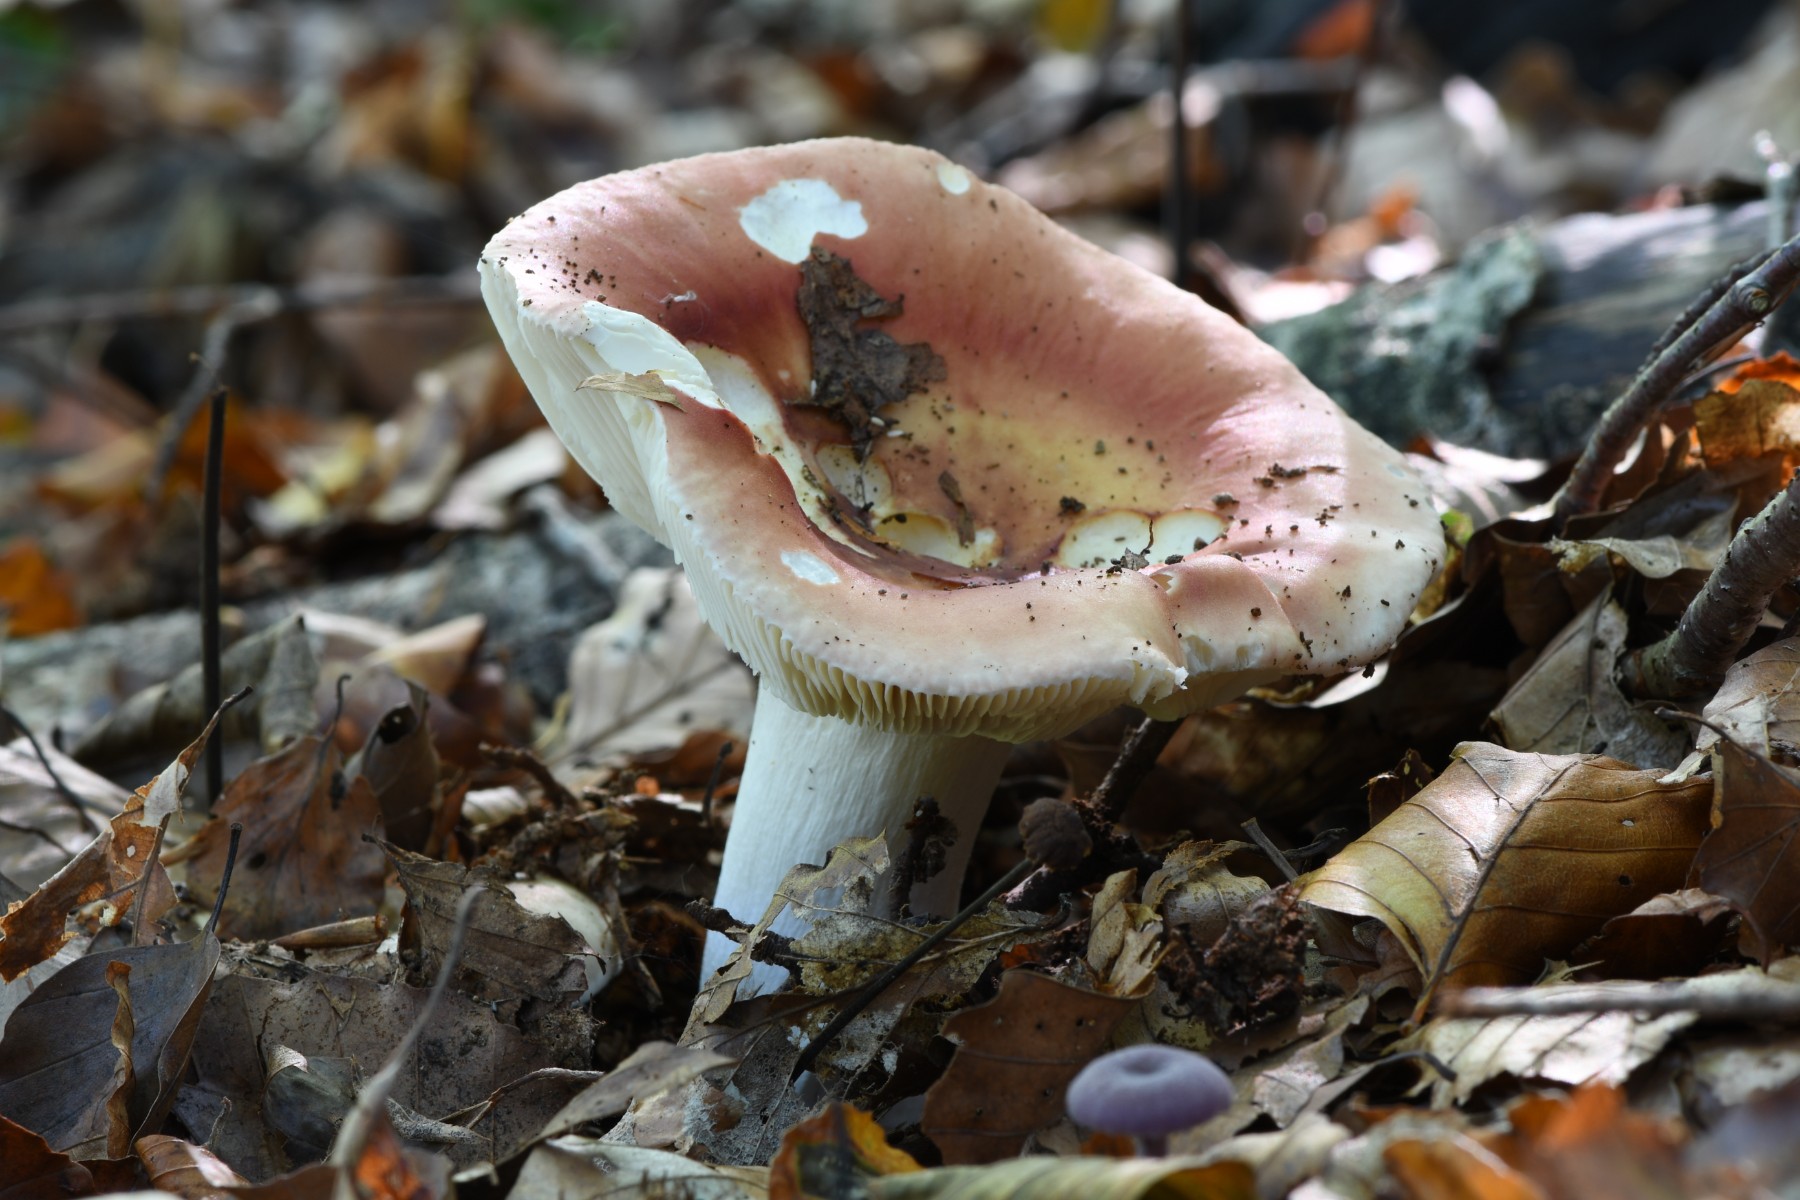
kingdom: Fungi
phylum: Basidiomycota
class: Agaricomycetes
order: Russulales
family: Russulaceae
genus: Russula
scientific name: Russula
